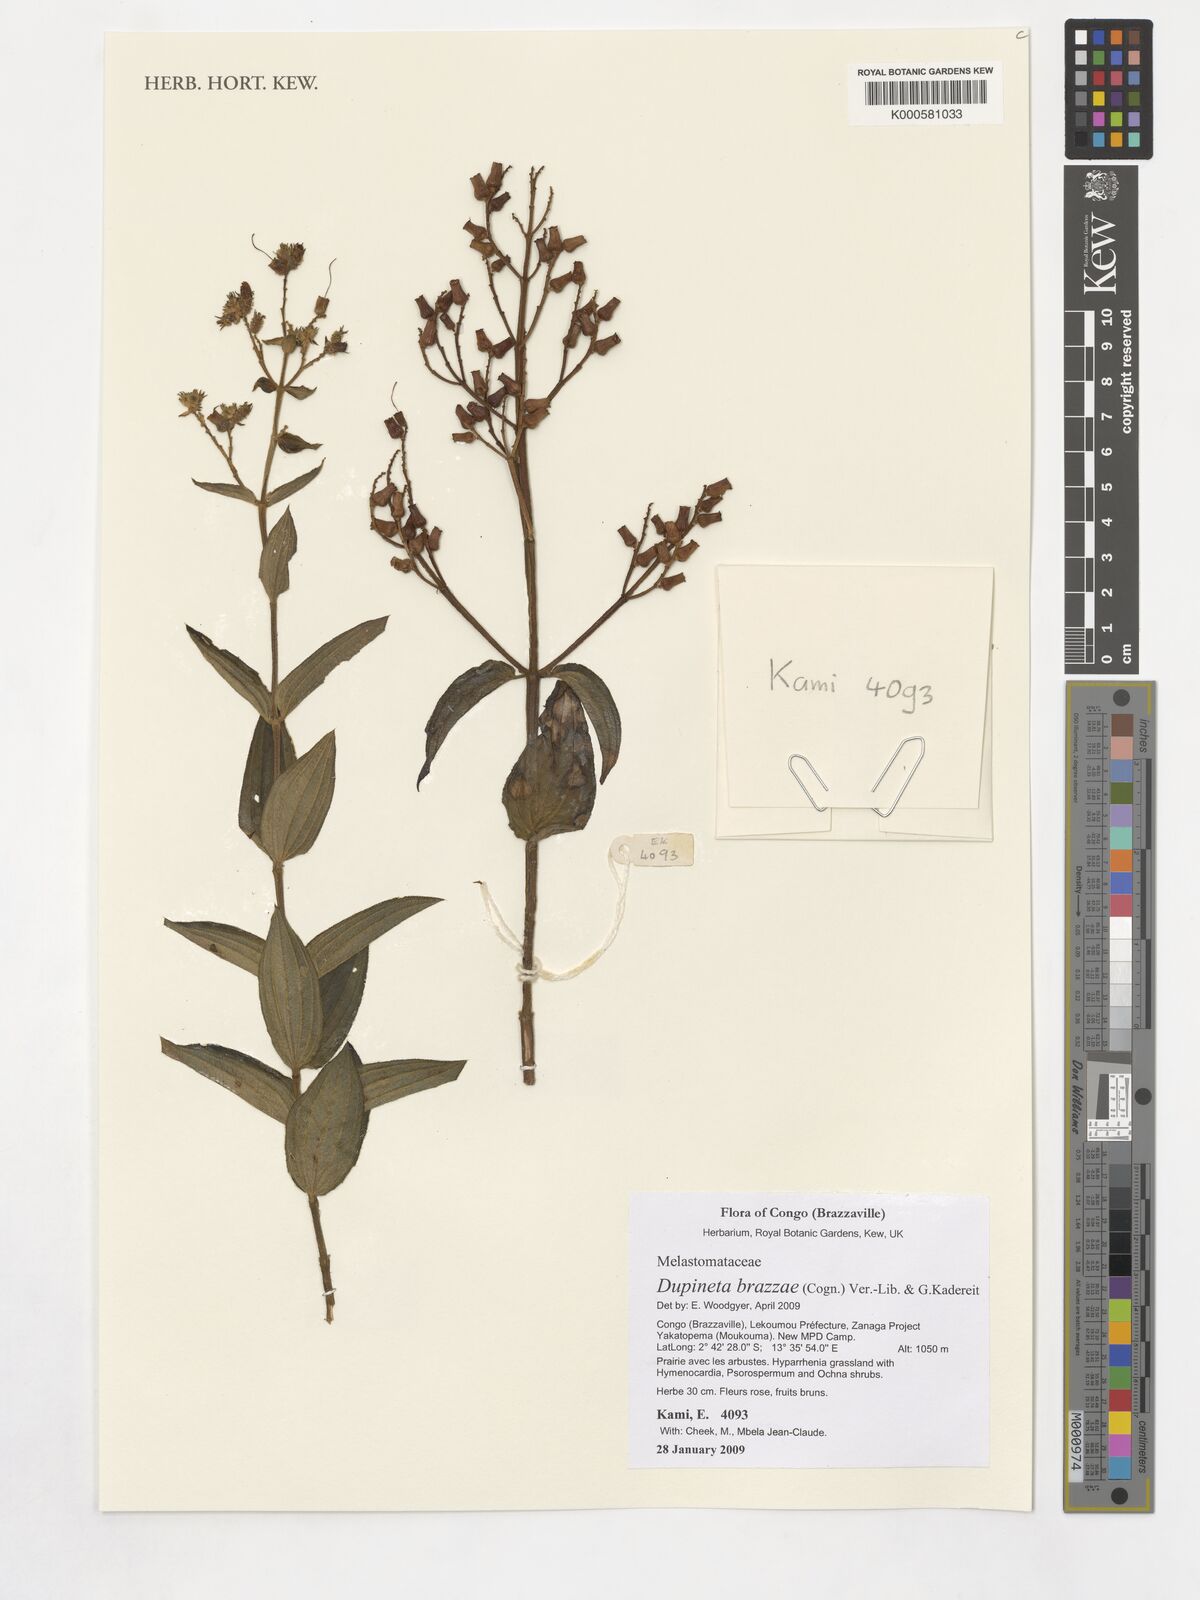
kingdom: Plantae
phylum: Tracheophyta
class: Magnoliopsida
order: Myrtales
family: Melastomataceae
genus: Dupineta
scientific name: Dupineta brazzae
